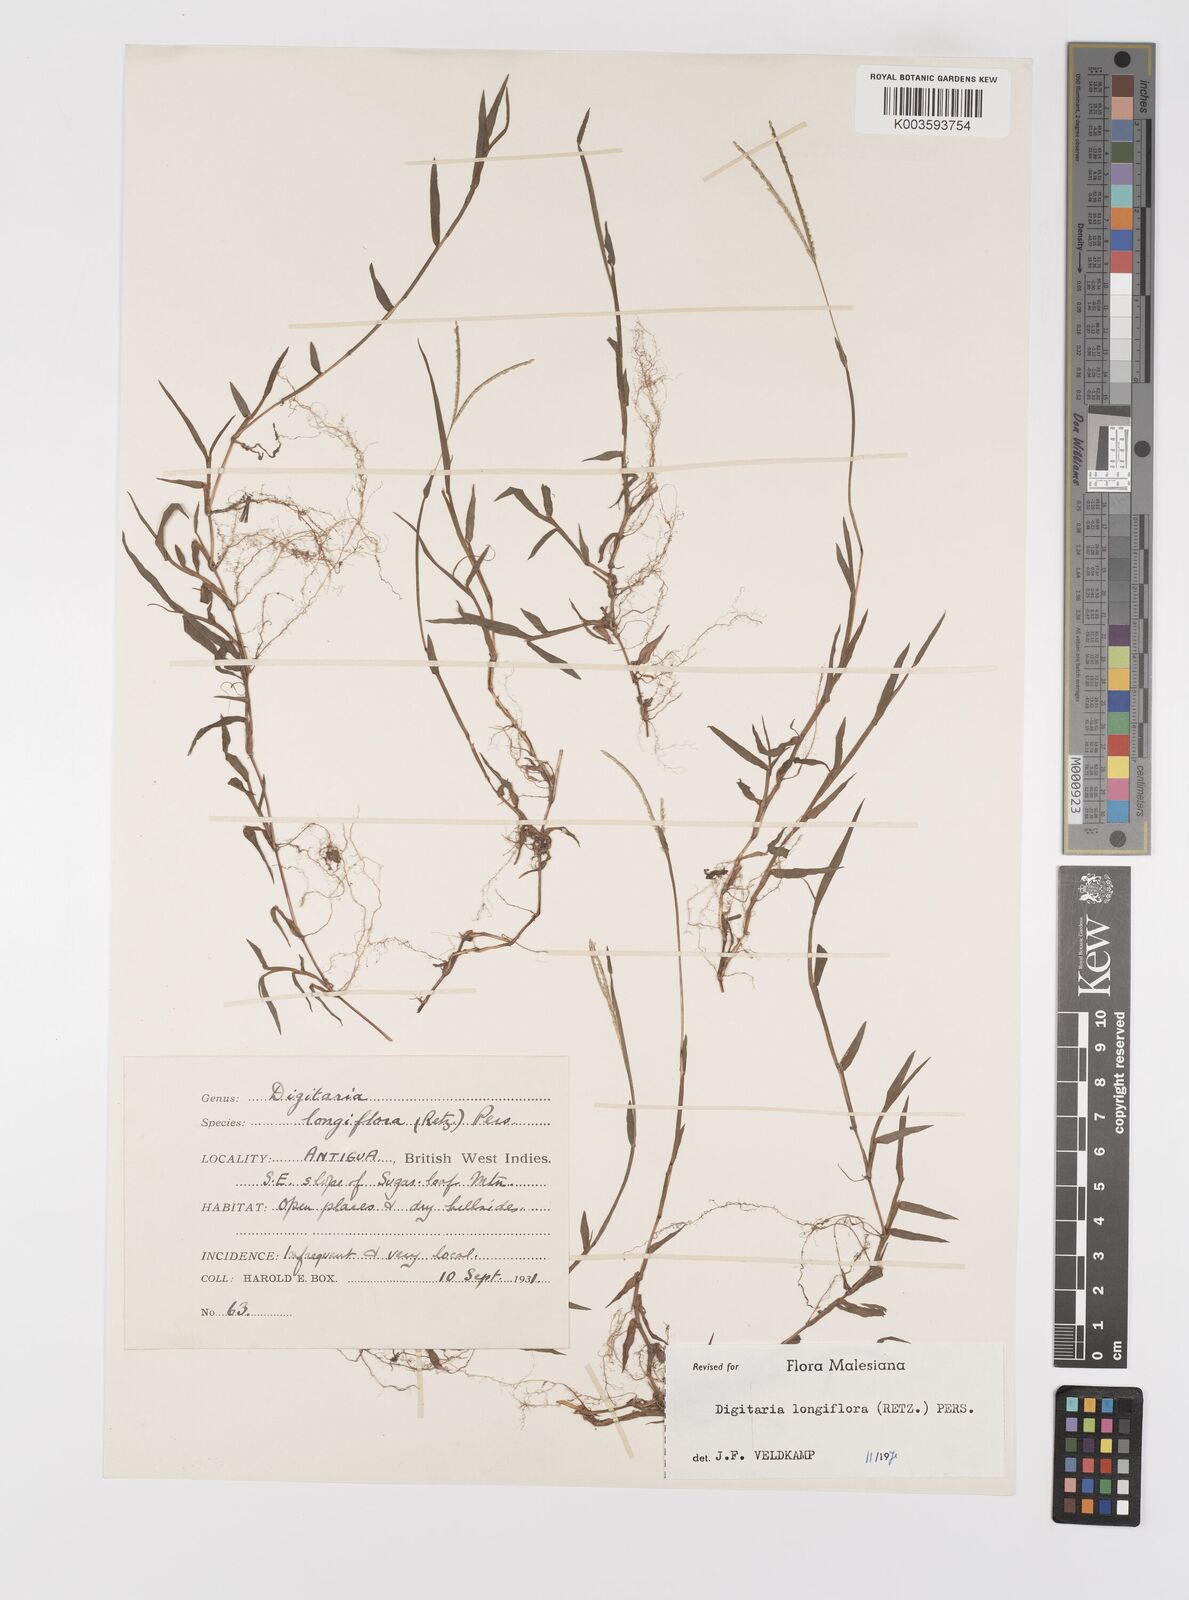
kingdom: Plantae
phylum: Tracheophyta
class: Liliopsida
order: Poales
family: Poaceae
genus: Digitaria
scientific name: Digitaria longiflora
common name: Wire crabgrass
